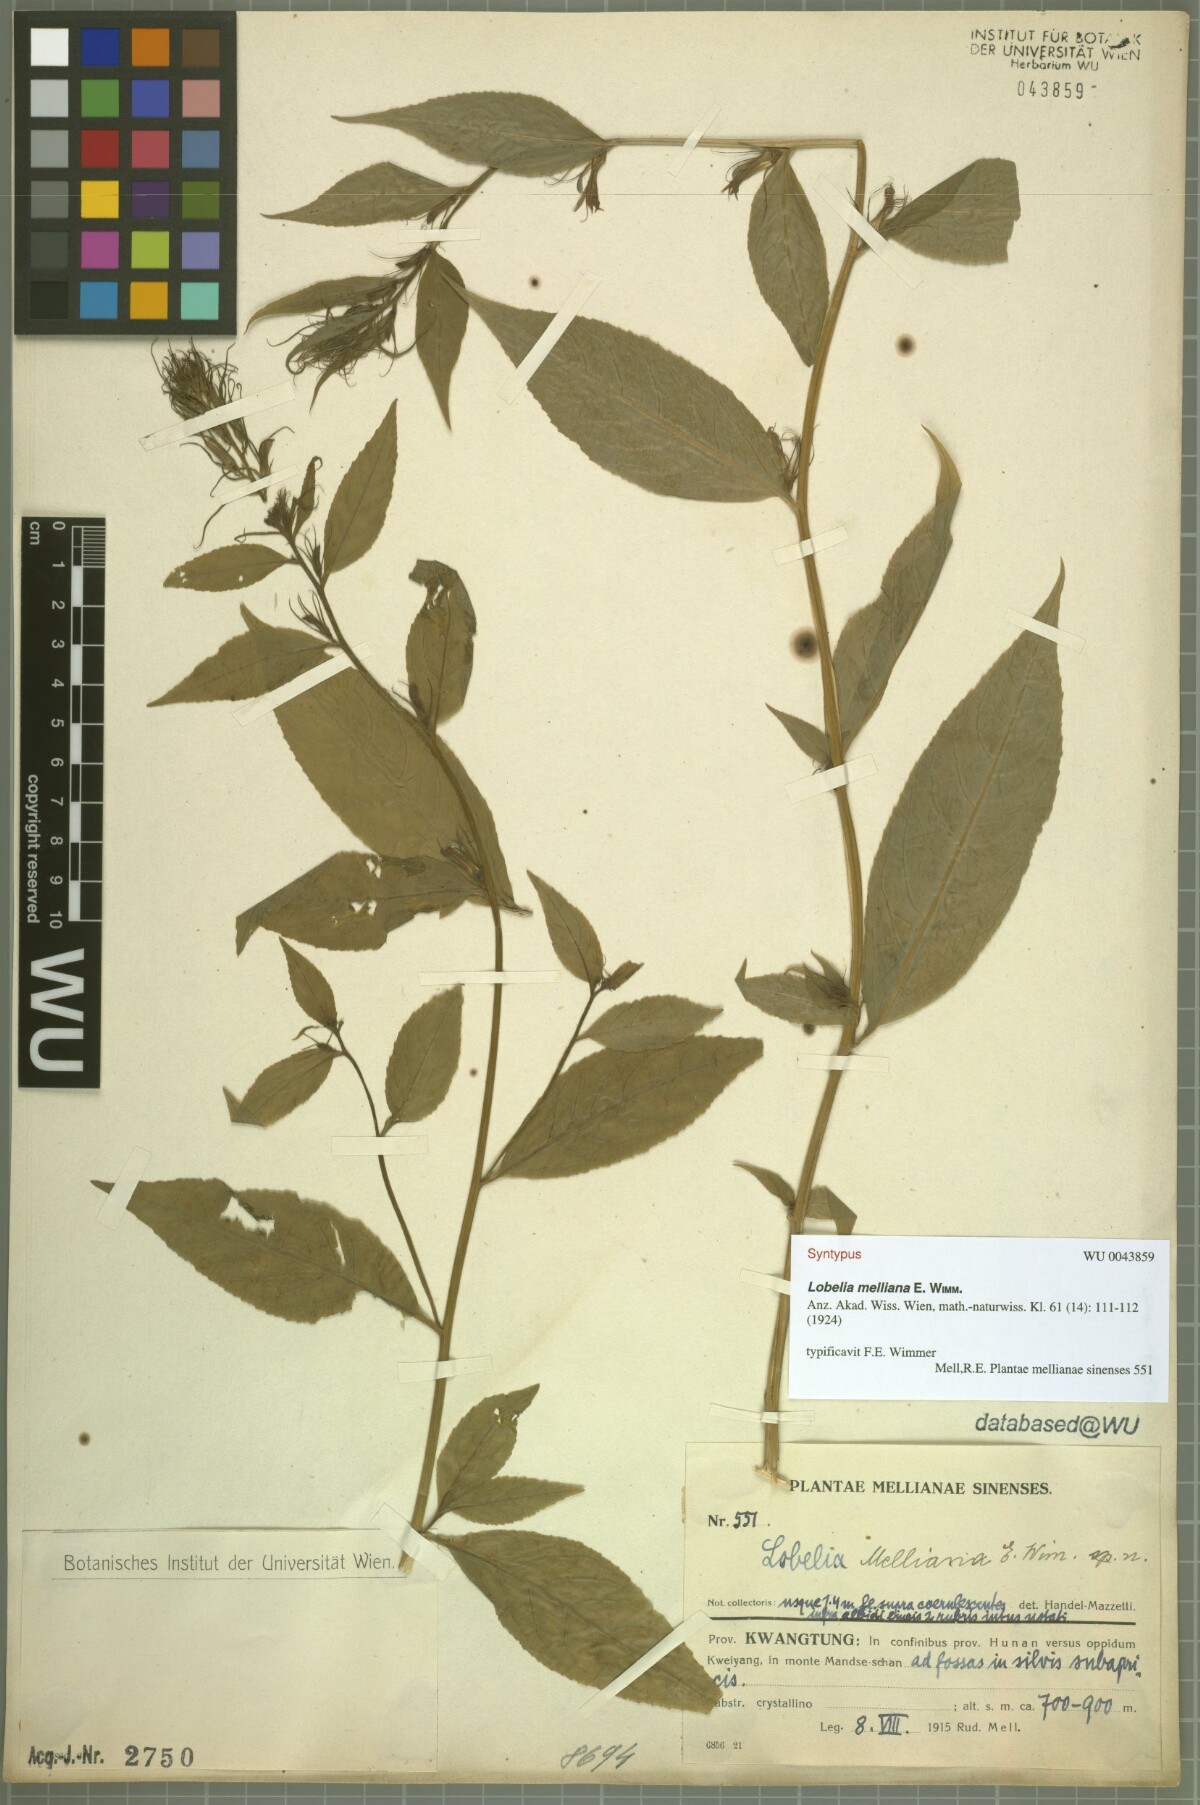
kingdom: Plantae
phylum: Tracheophyta
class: Magnoliopsida
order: Asterales
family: Campanulaceae
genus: Lobelia
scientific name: Lobelia melliana
